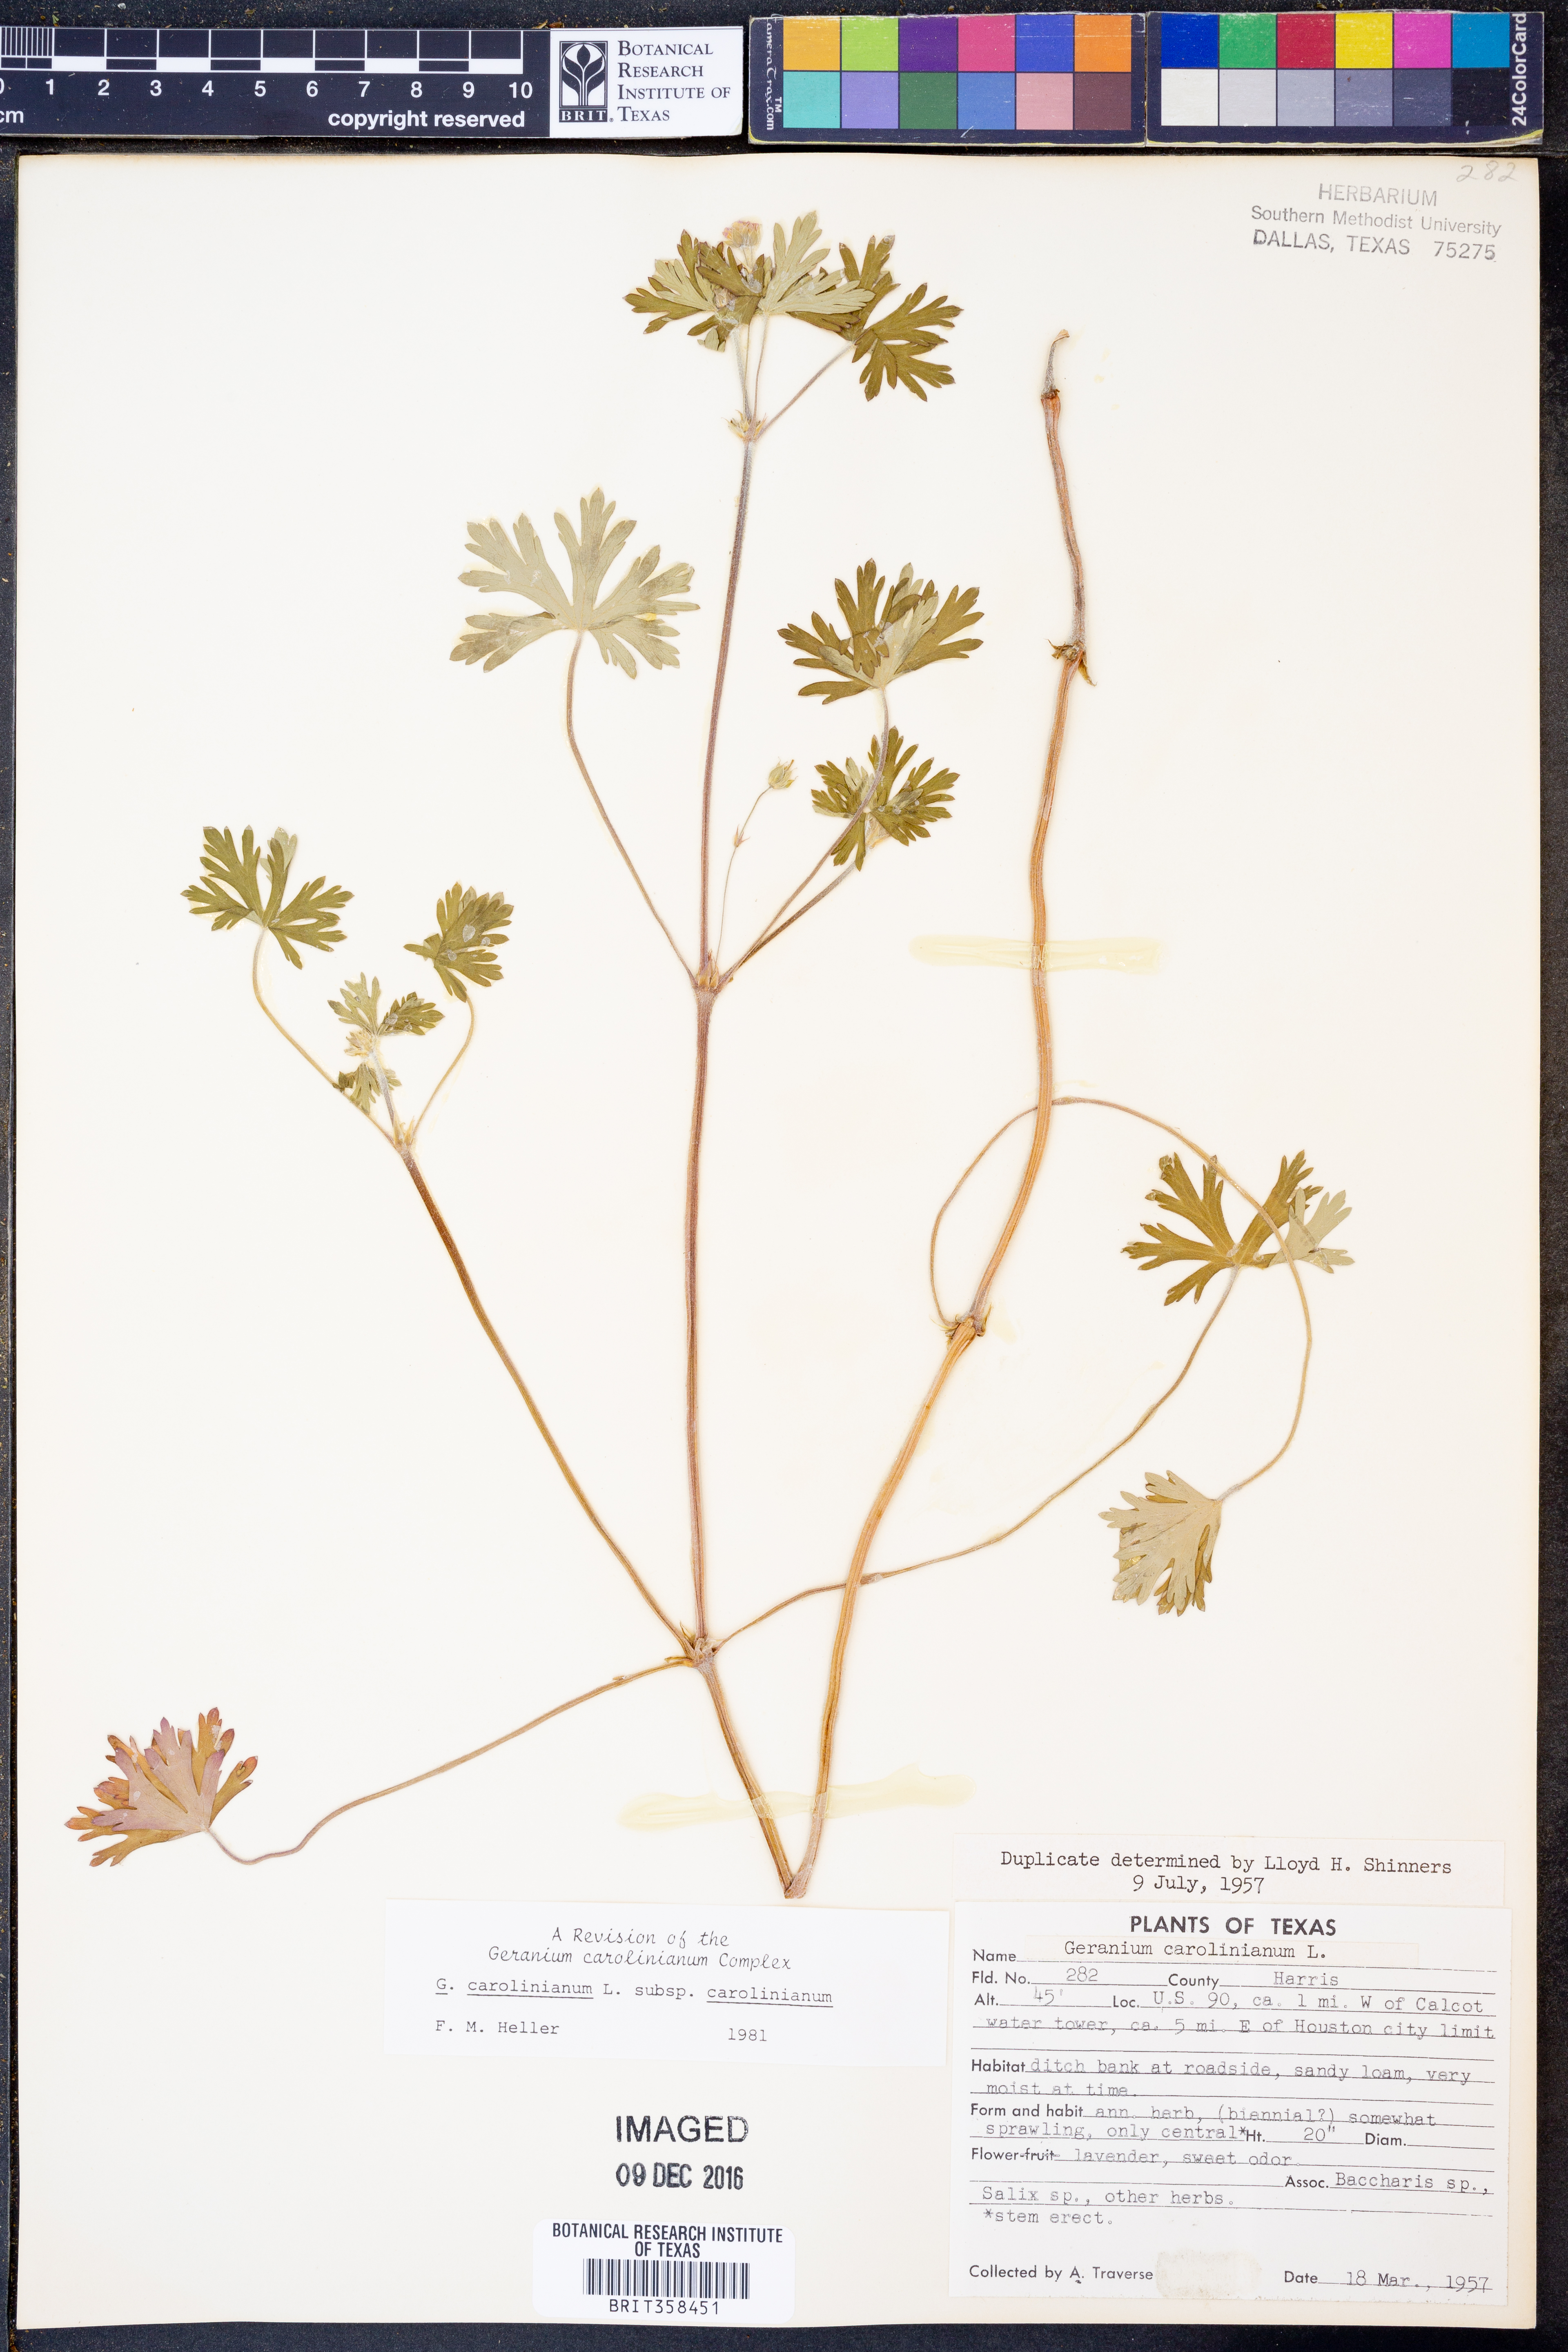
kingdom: Plantae
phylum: Tracheophyta
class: Magnoliopsida
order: Geraniales
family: Geraniaceae
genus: Geranium
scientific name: Geranium carolinianum
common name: Carolina crane's-bill
